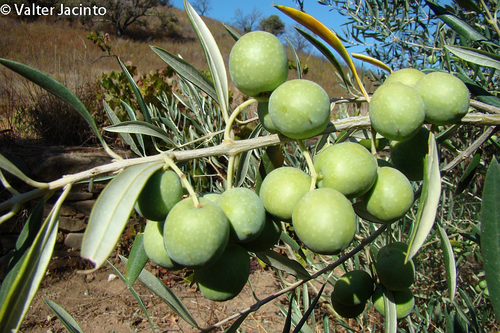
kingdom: Plantae
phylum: Tracheophyta
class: Magnoliopsida
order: Lamiales
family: Oleaceae
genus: Olea
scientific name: Olea europaea
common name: Olive
